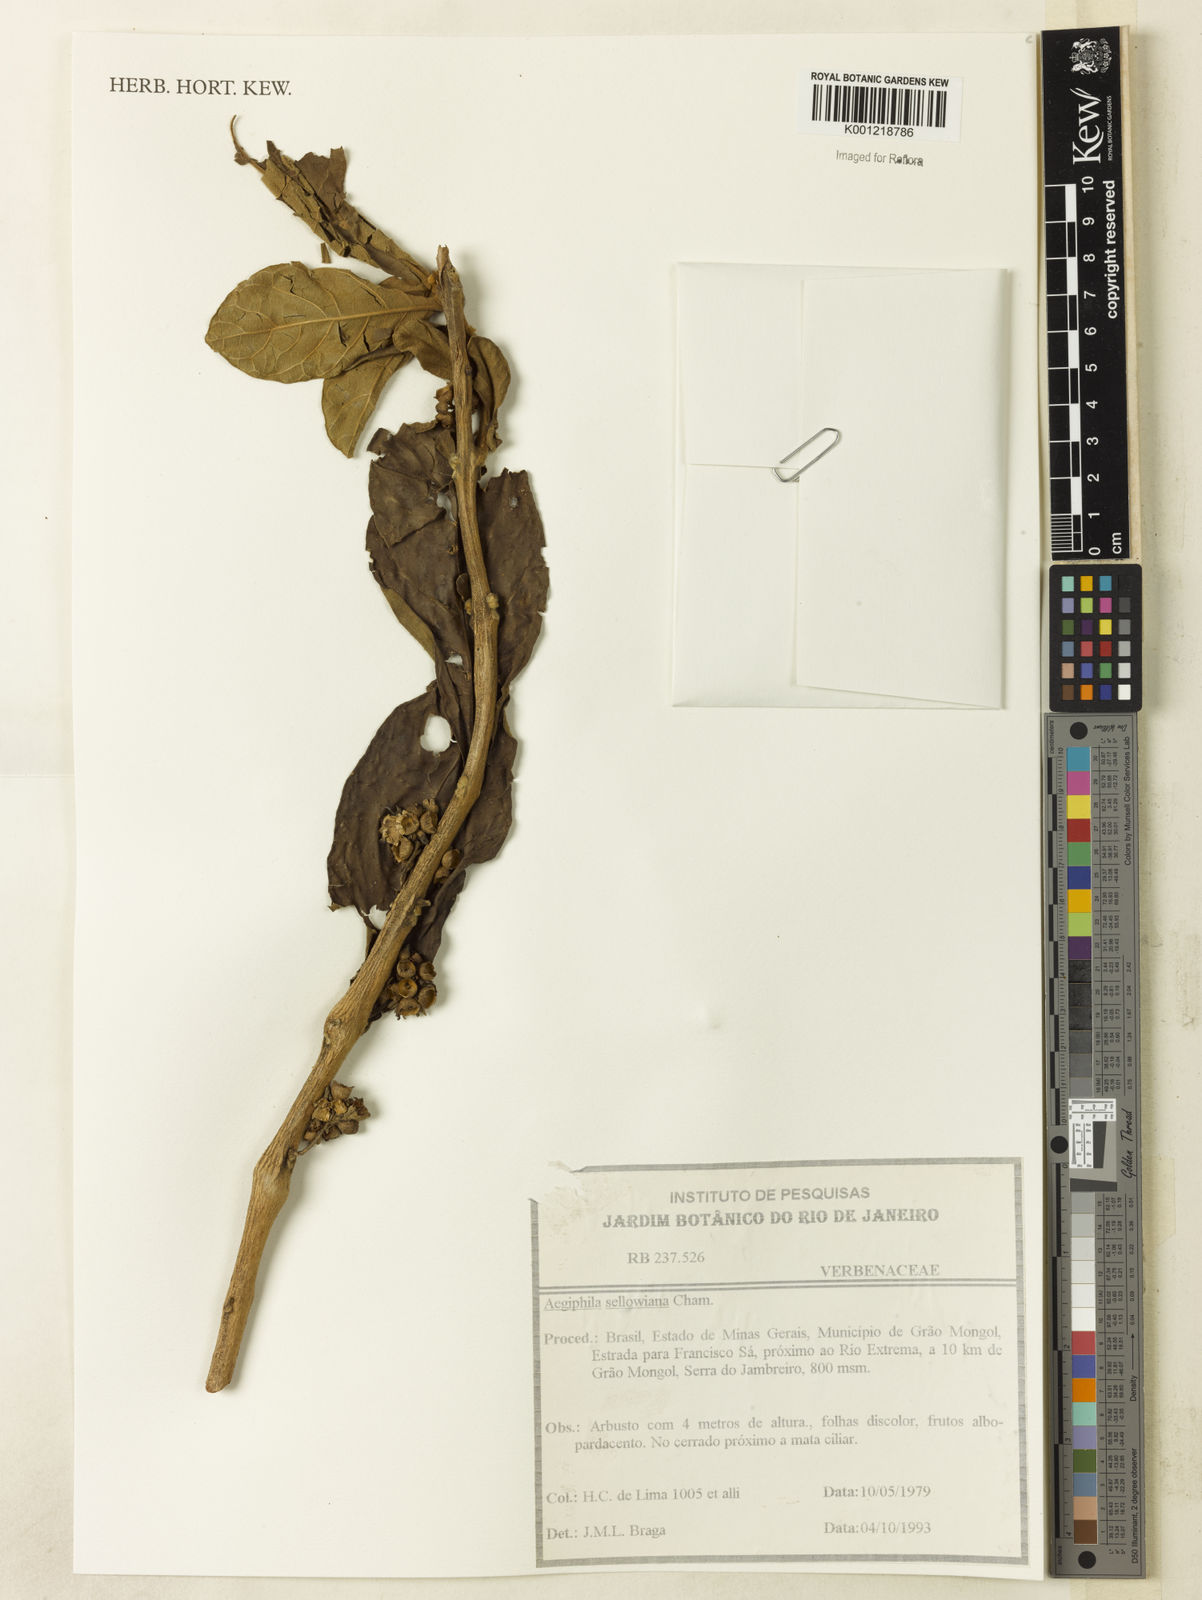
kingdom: Plantae
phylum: Tracheophyta
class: Magnoliopsida
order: Lamiales
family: Lamiaceae
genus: Aegiphila
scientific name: Aegiphila verticillata
